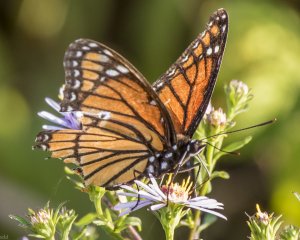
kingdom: Animalia
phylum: Arthropoda
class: Insecta
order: Lepidoptera
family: Nymphalidae
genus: Limenitis
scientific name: Limenitis archippus
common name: Viceroy
